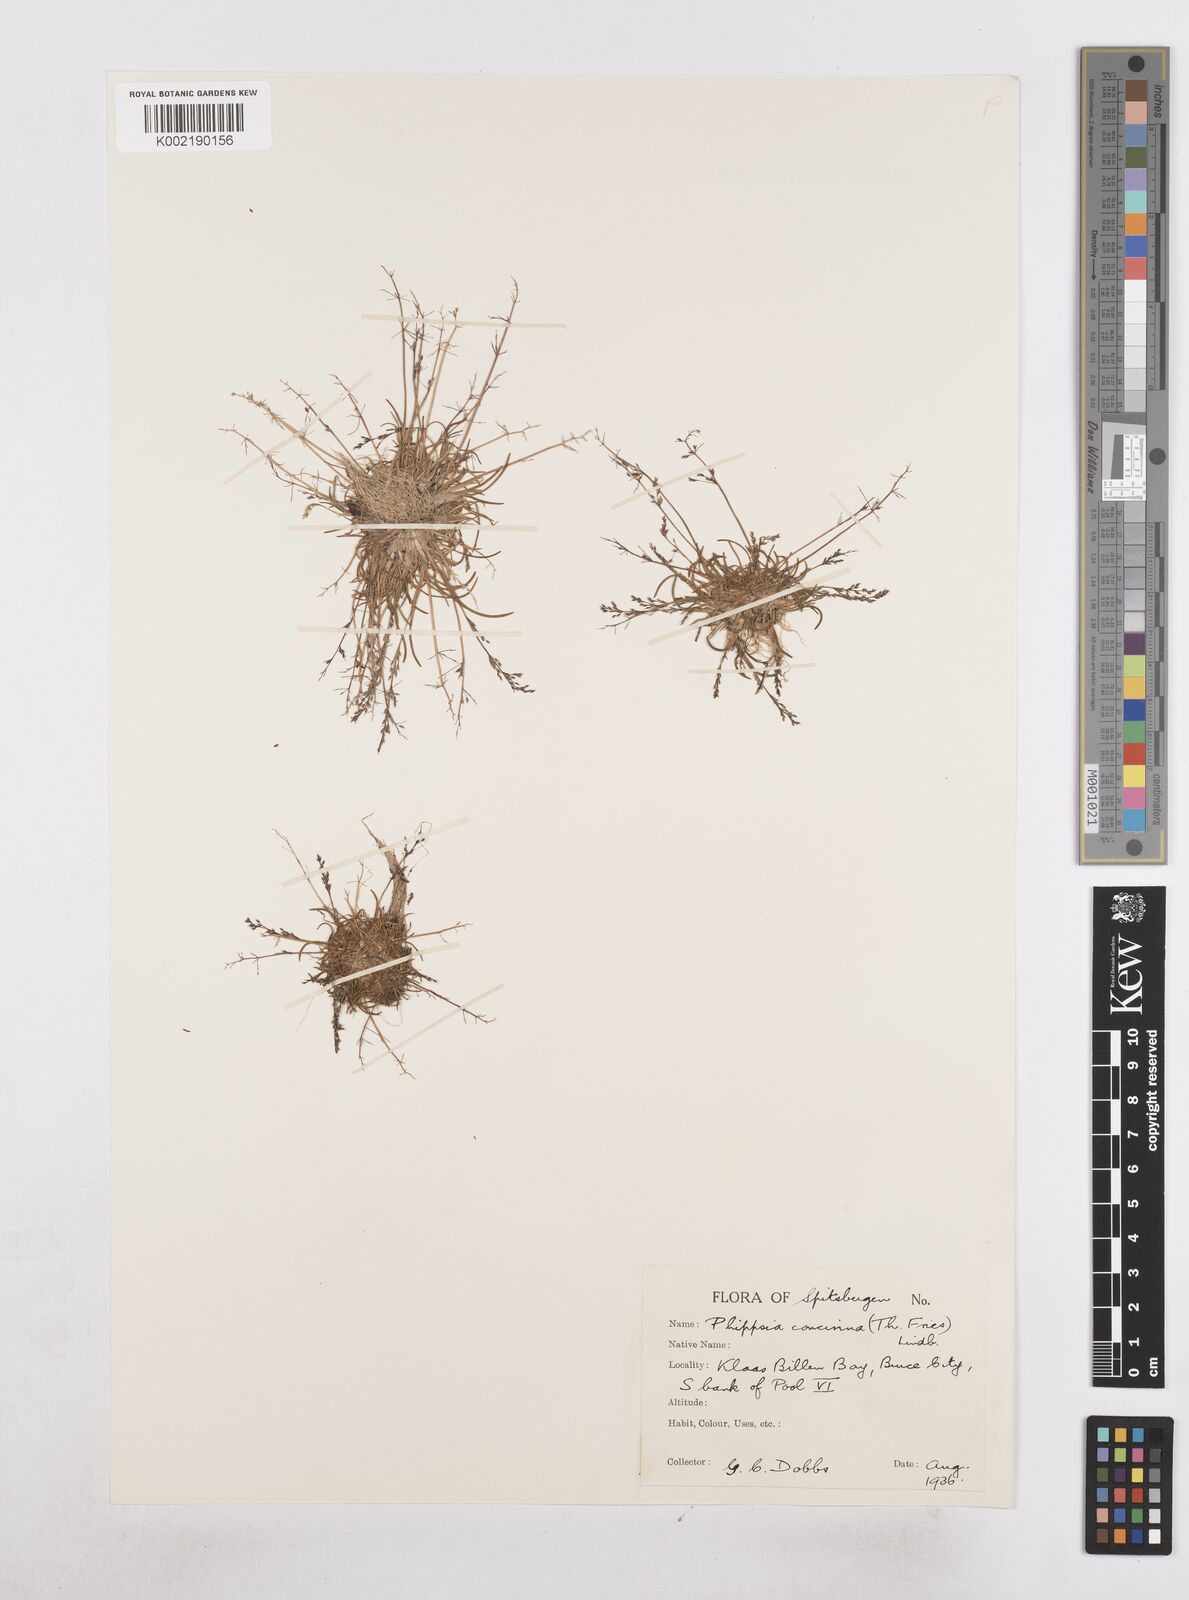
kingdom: Plantae
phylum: Tracheophyta
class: Liliopsida
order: Poales
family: Poaceae
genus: Phippsia
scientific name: Phippsia concinna
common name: Snowgrass
